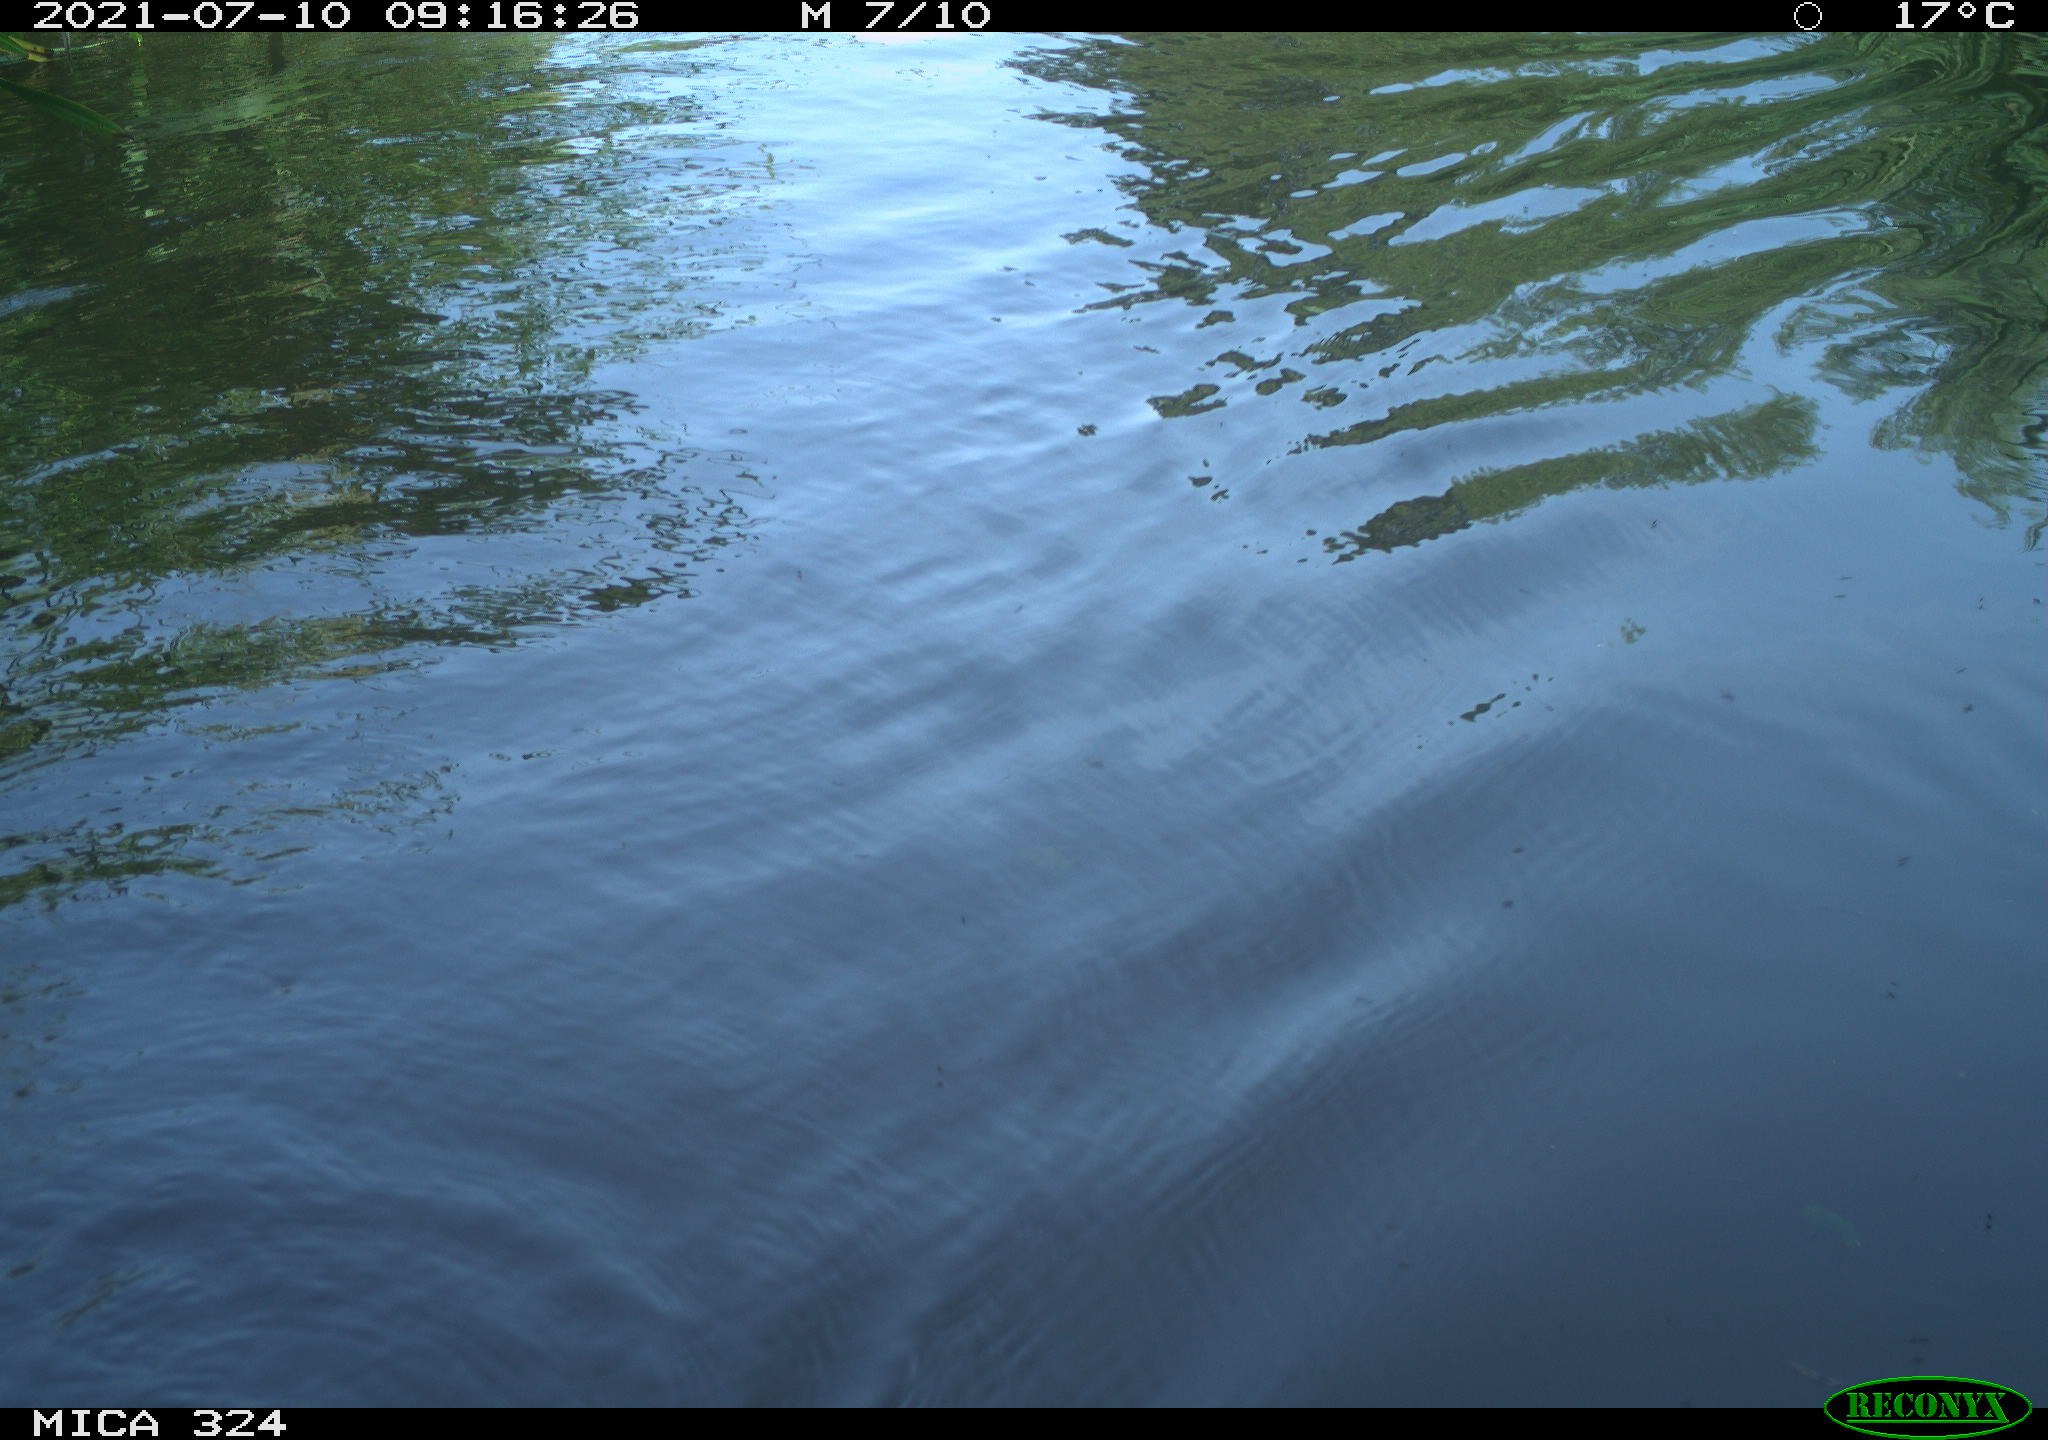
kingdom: Animalia
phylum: Chordata
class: Mammalia
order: Rodentia
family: Cricetidae
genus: Ondatra
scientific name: Ondatra zibethicus
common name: Muskrat
